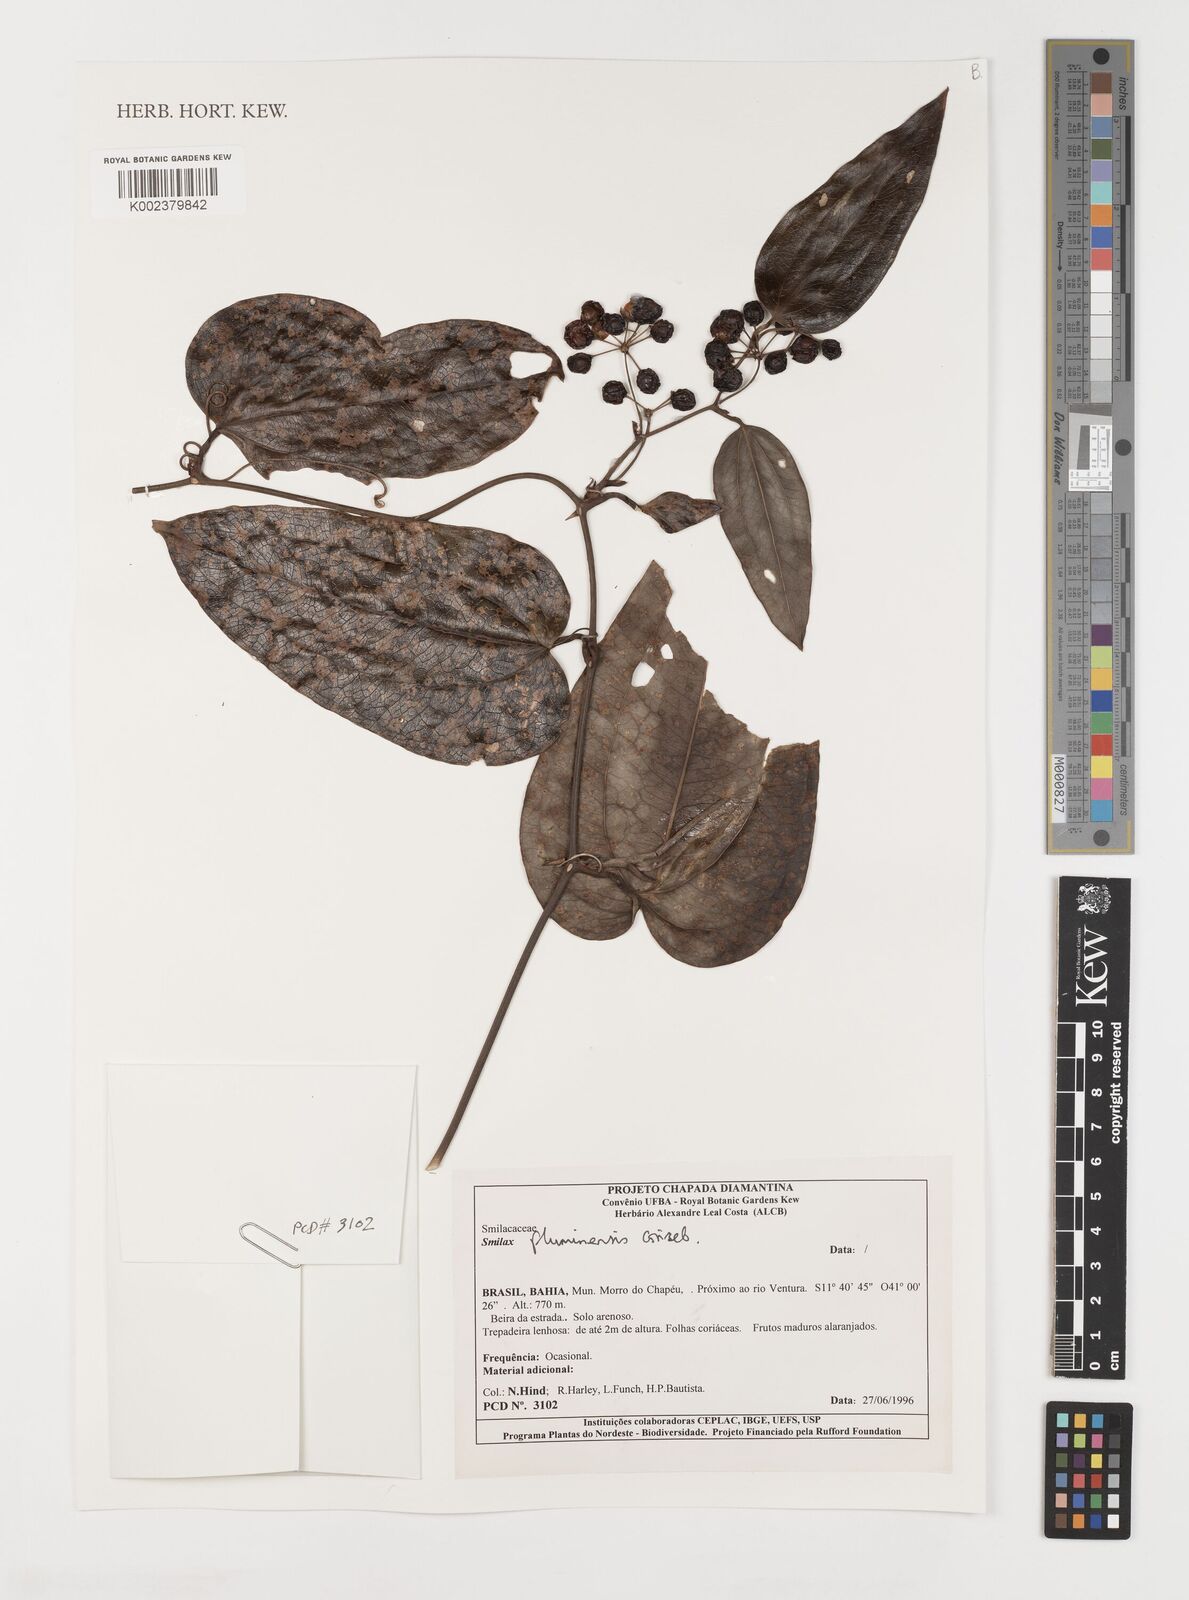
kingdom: Plantae
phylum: Tracheophyta
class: Liliopsida
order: Liliales
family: Smilacaceae
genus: Smilax
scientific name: Smilax fluminensis
